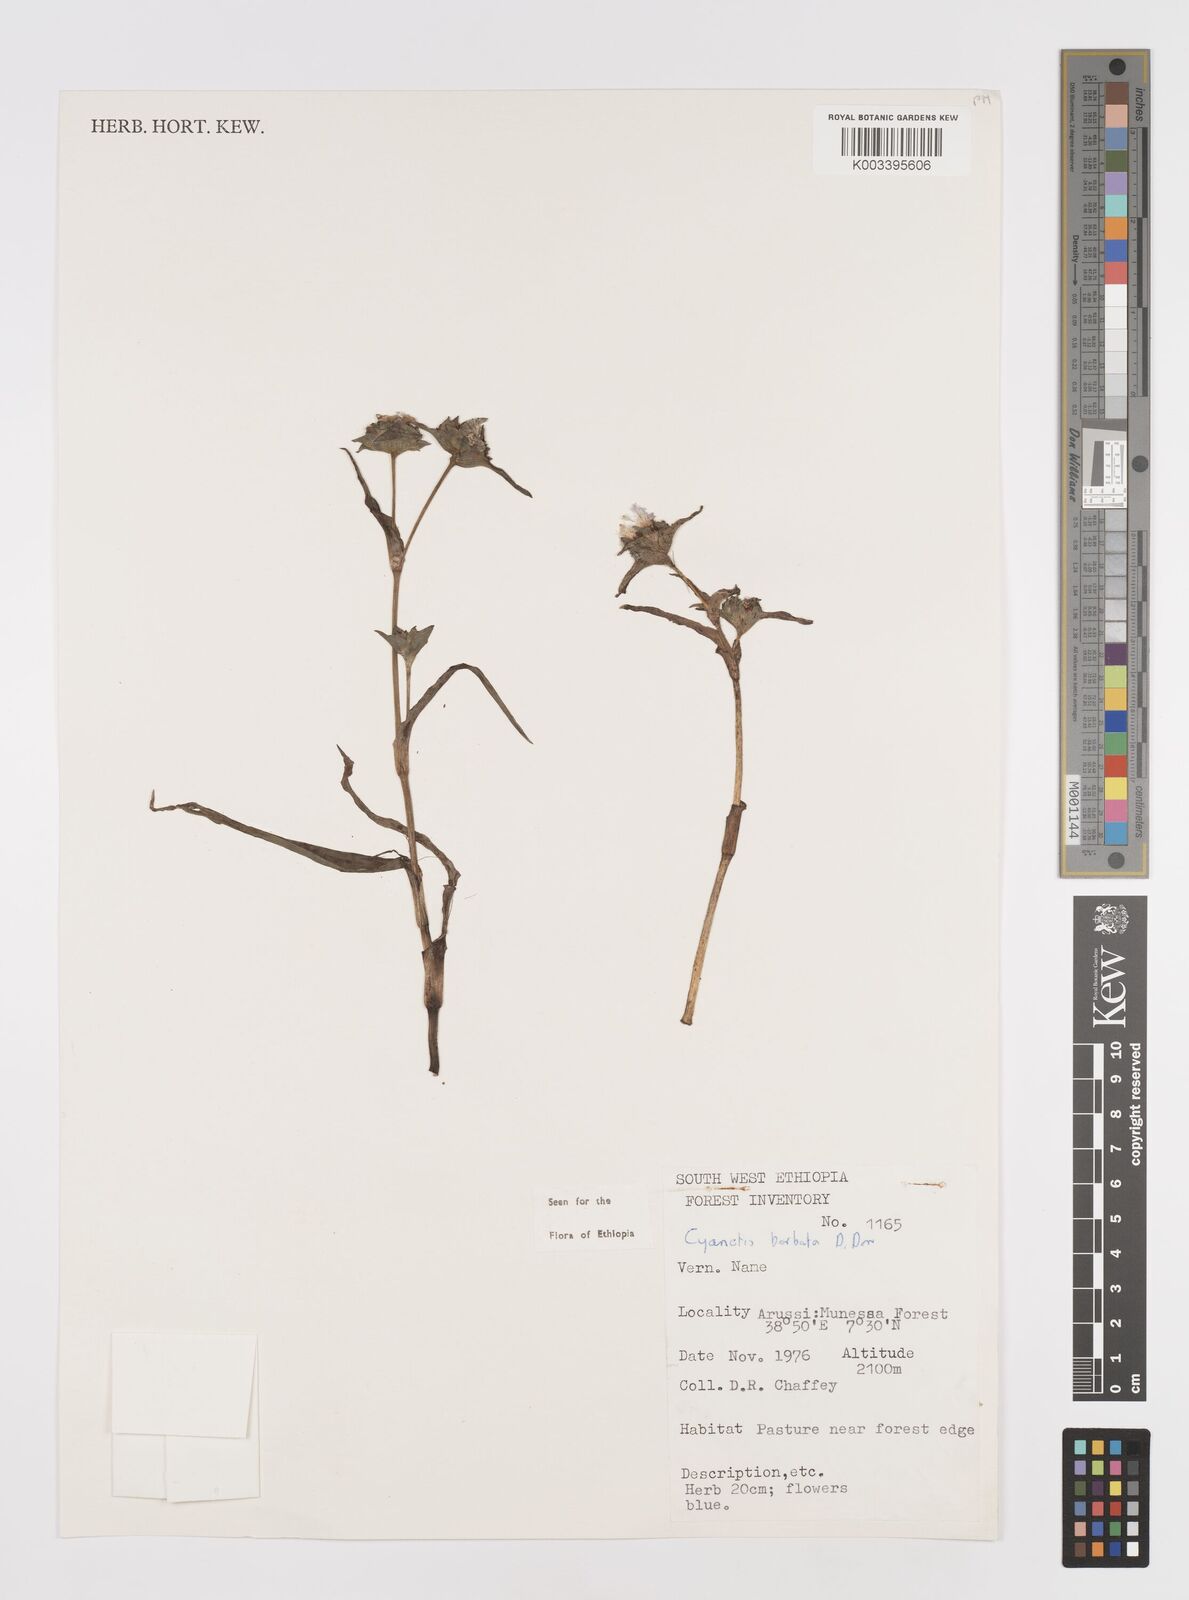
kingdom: Plantae
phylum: Tracheophyta
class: Liliopsida
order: Commelinales
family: Commelinaceae
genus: Cyanotis
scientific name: Cyanotis vaga
